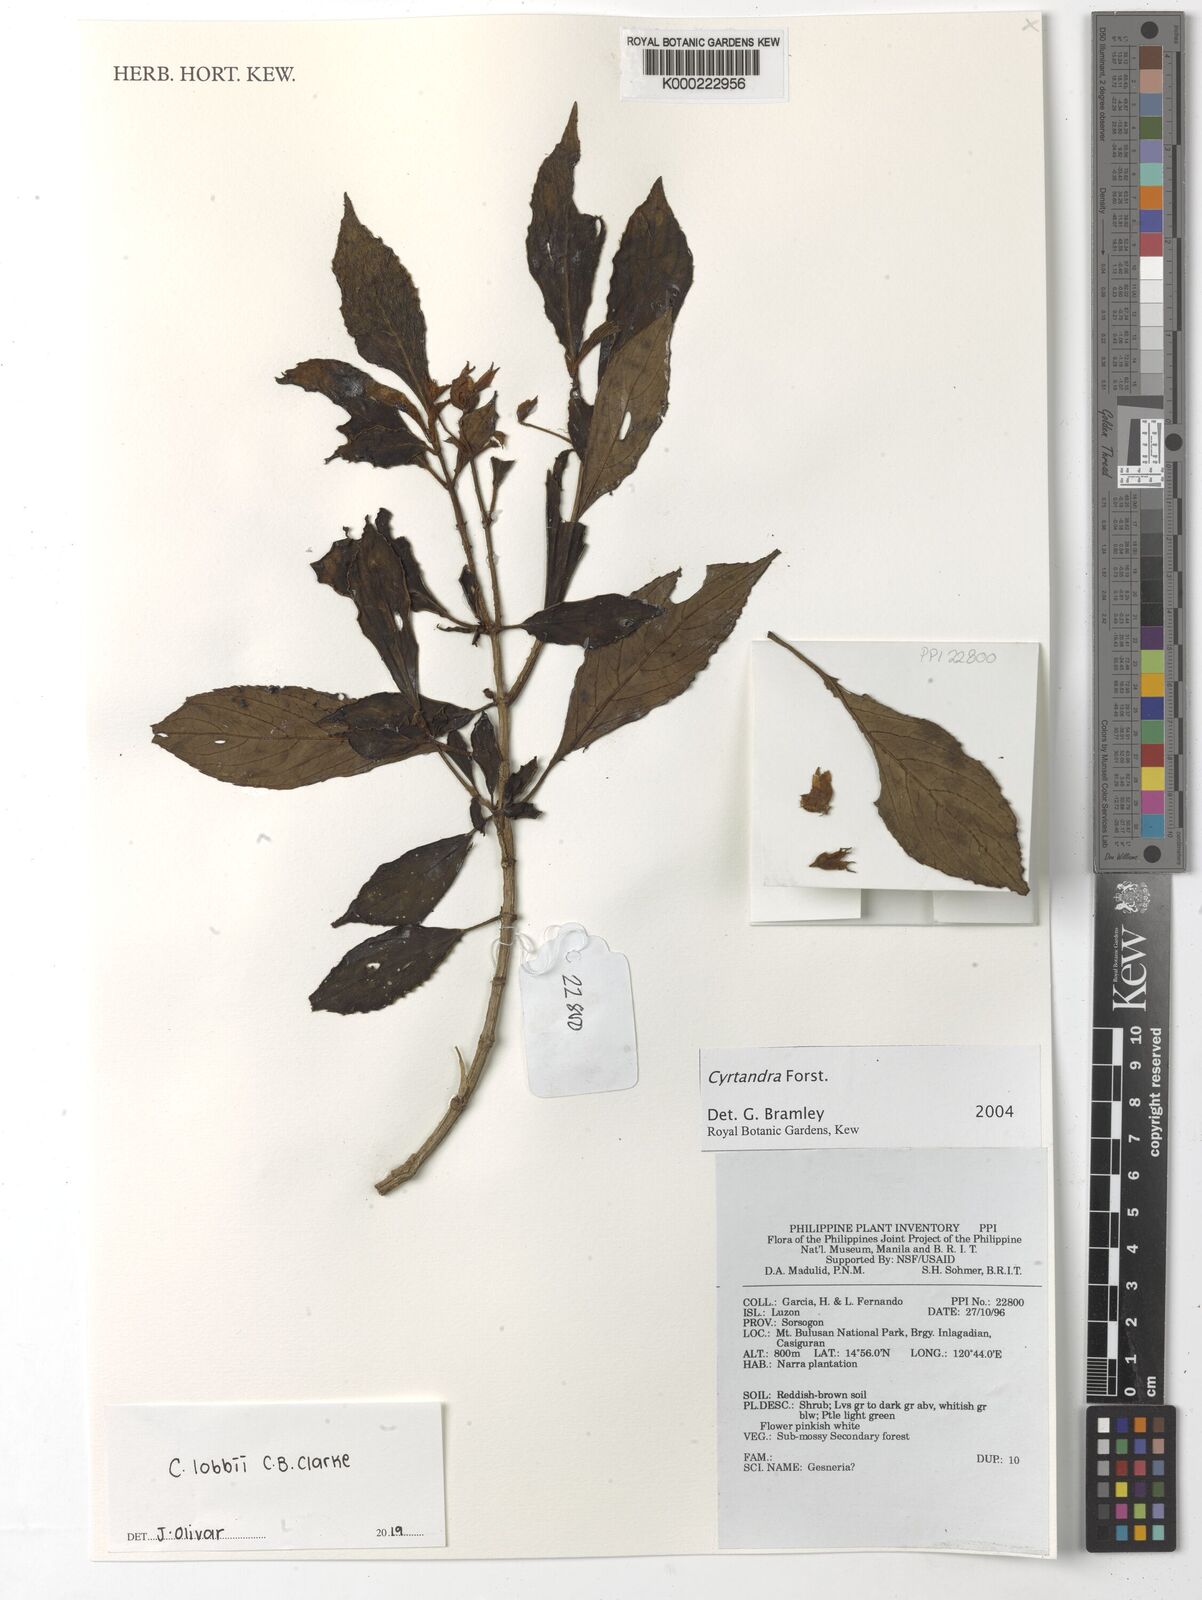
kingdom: Plantae
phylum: Tracheophyta
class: Magnoliopsida
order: Lamiales
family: Gesneriaceae
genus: Cyrtandra
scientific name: Cyrtandra
